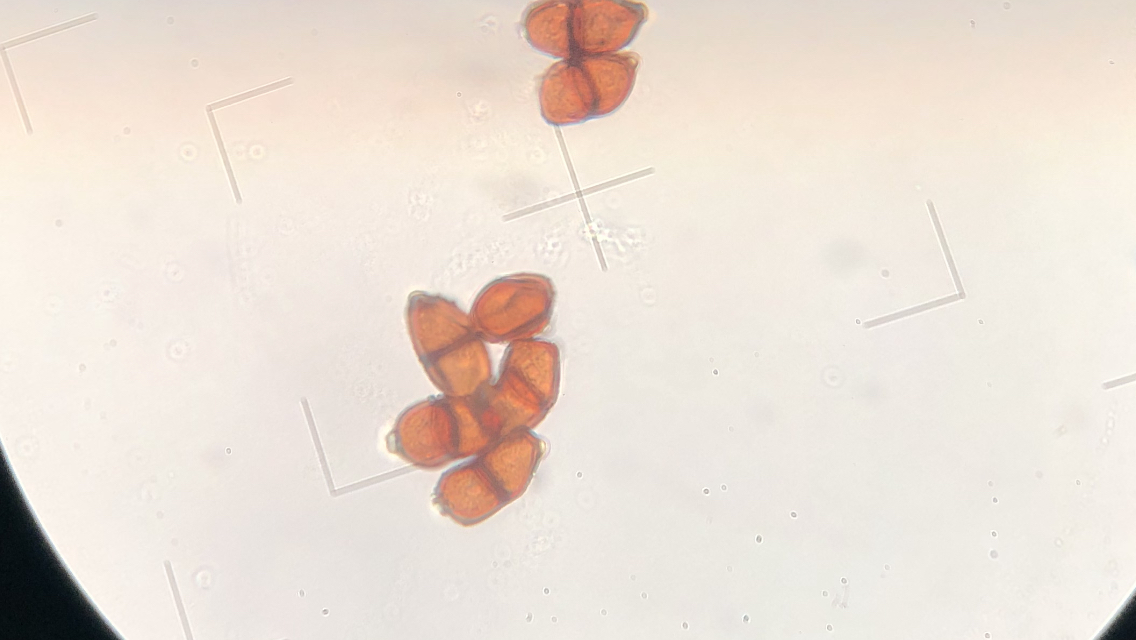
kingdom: Fungi
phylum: Basidiomycota
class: Pucciniomycetes
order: Pucciniales
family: Pucciniaceae
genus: Puccinia
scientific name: Puccinia
